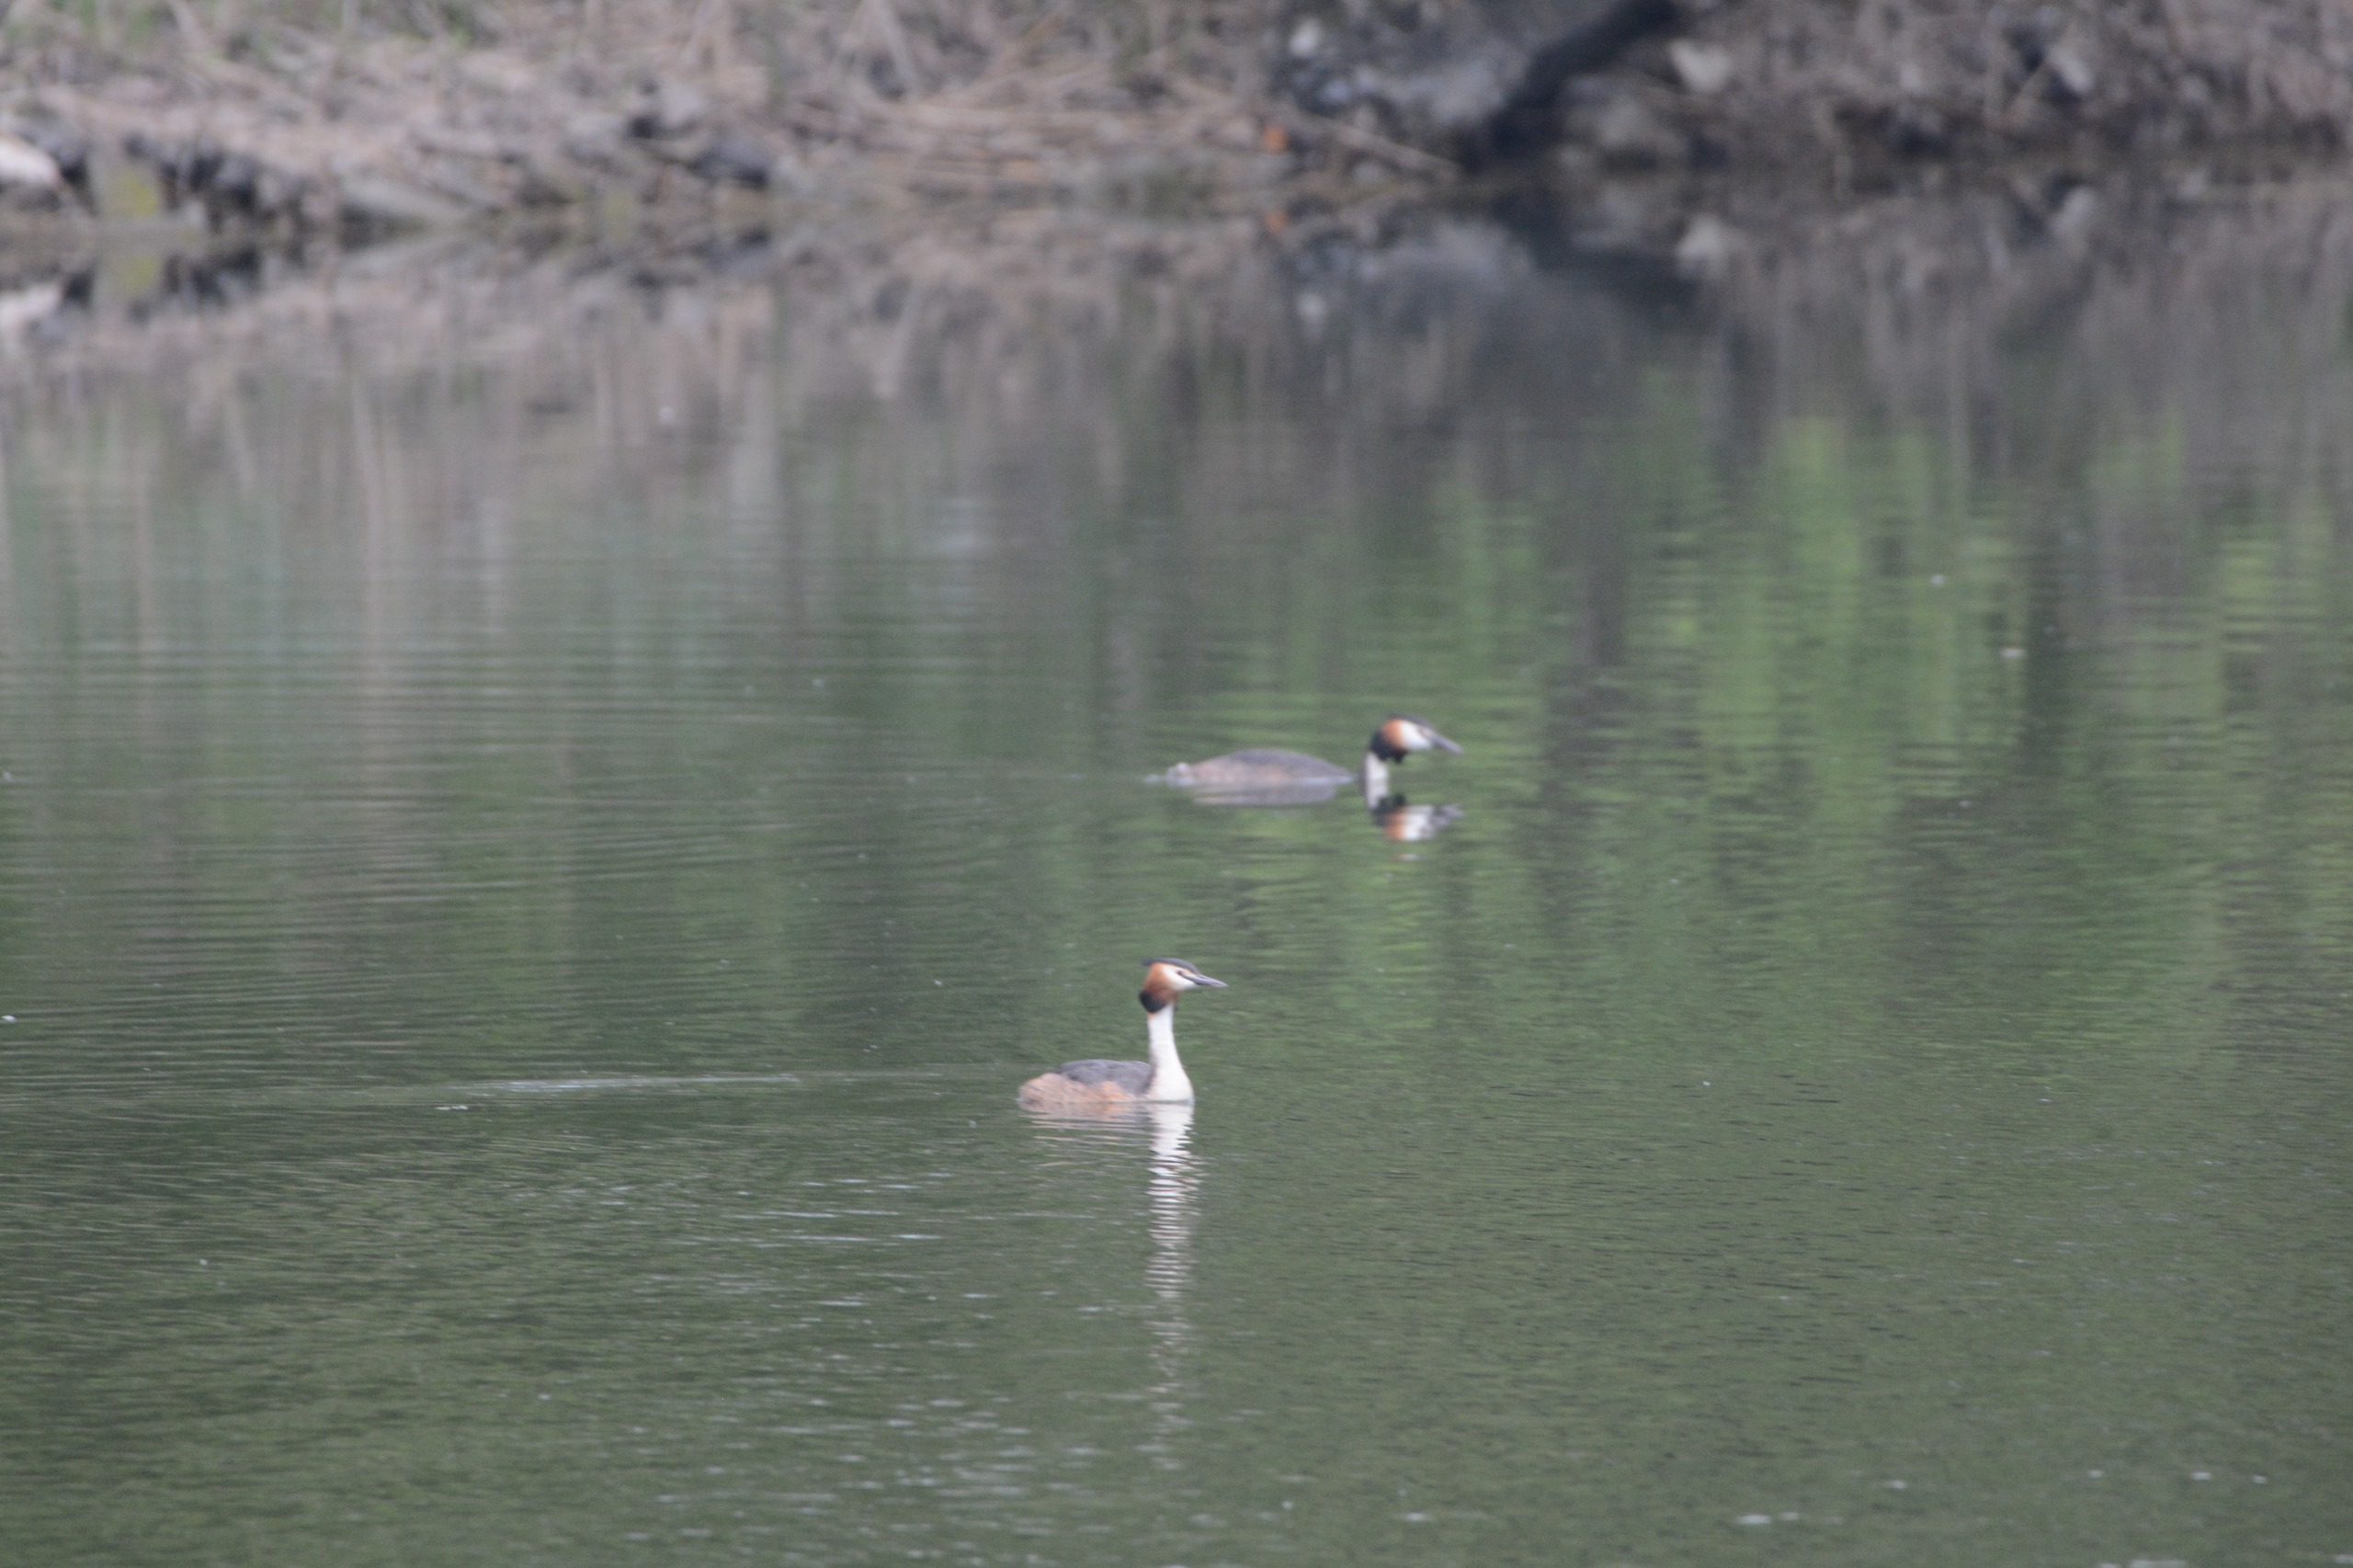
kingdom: Animalia
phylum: Chordata
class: Aves
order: Podicipediformes
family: Podicipedidae
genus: Podiceps
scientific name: Podiceps cristatus
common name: Toppet lappedykker
